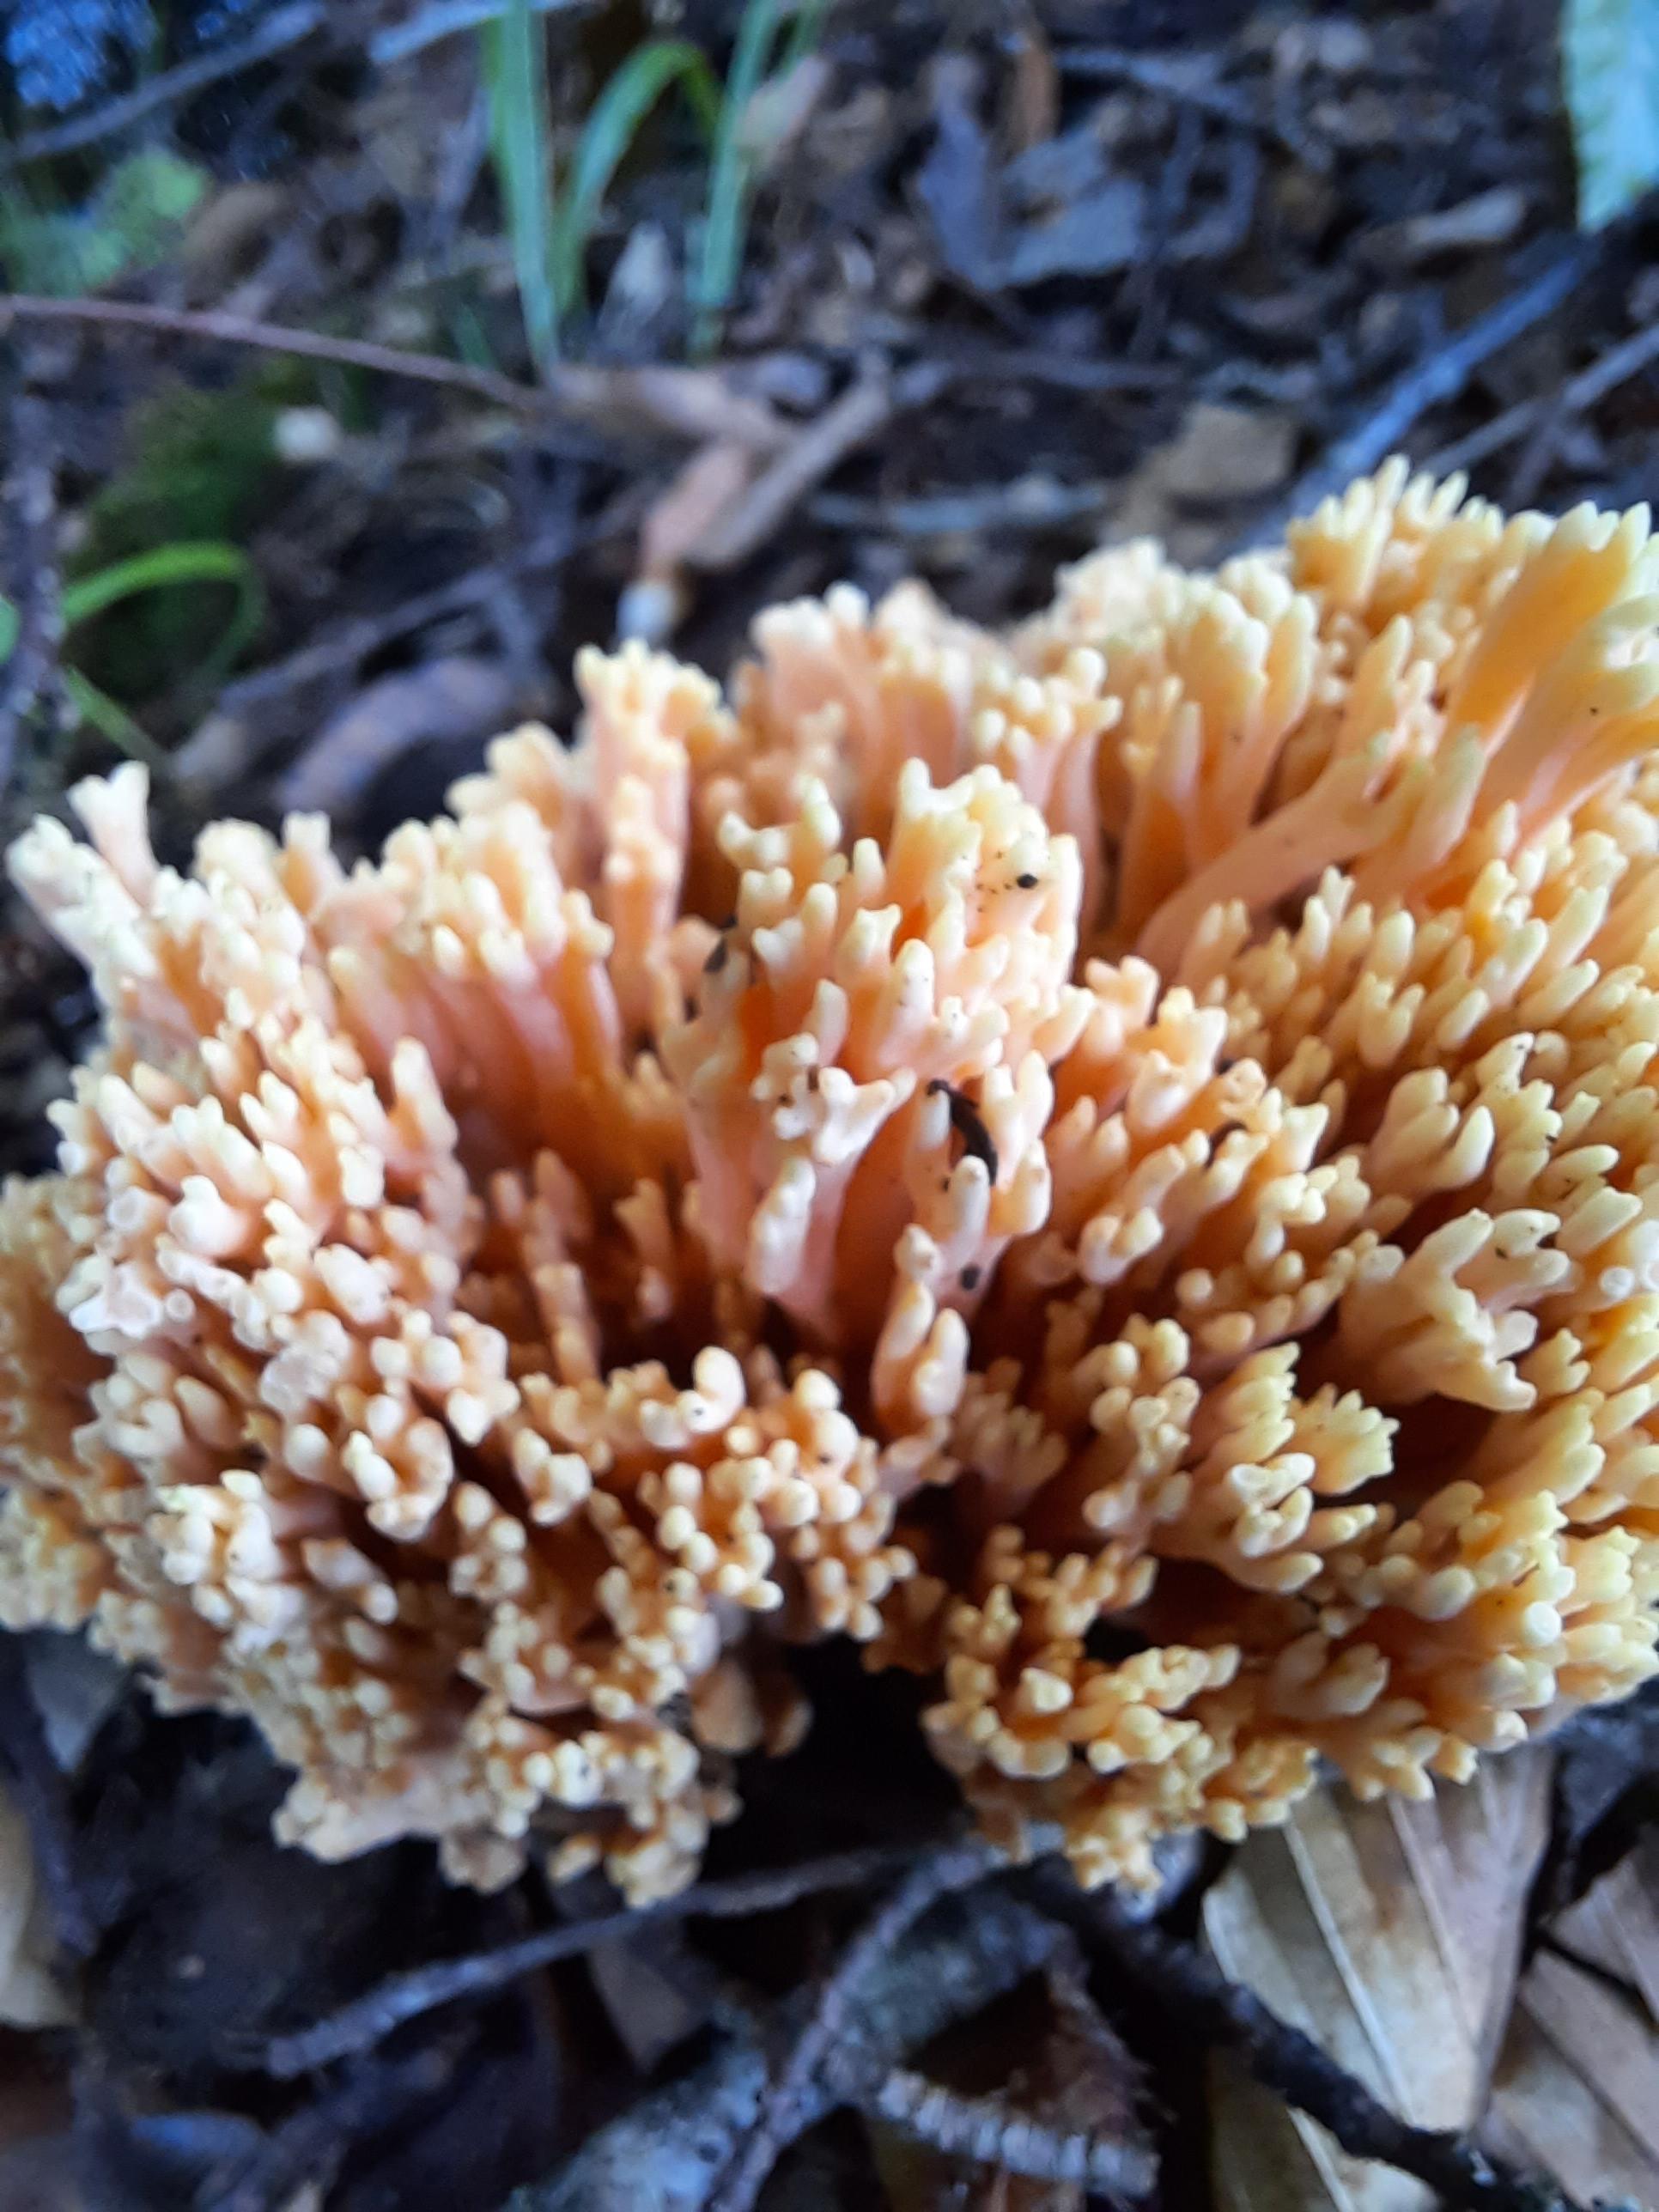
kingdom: Fungi
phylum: Basidiomycota
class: Agaricomycetes
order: Gomphales
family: Gomphaceae
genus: Ramaria
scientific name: Ramaria fagetorum
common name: abrikos-koralsvamp
